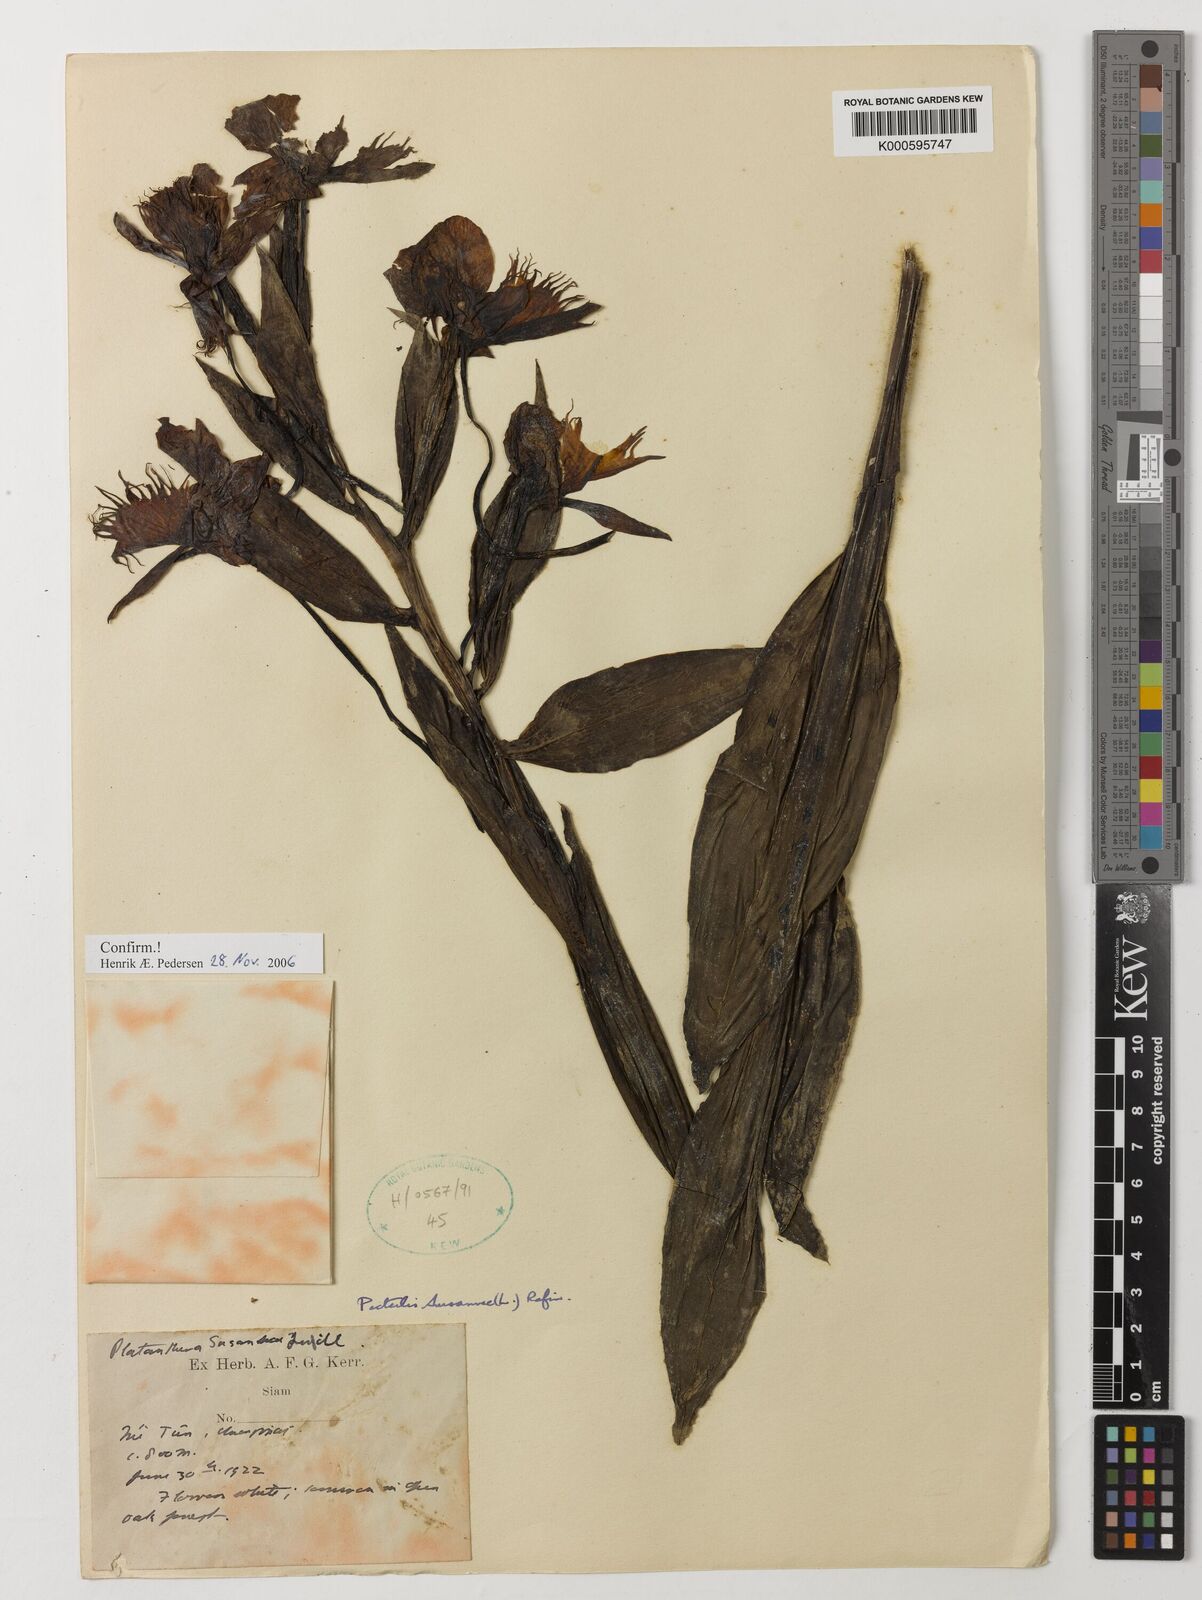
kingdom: Plantae
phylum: Tracheophyta
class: Liliopsida
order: Asparagales
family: Orchidaceae
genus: Pecteilis
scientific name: Pecteilis susannae
